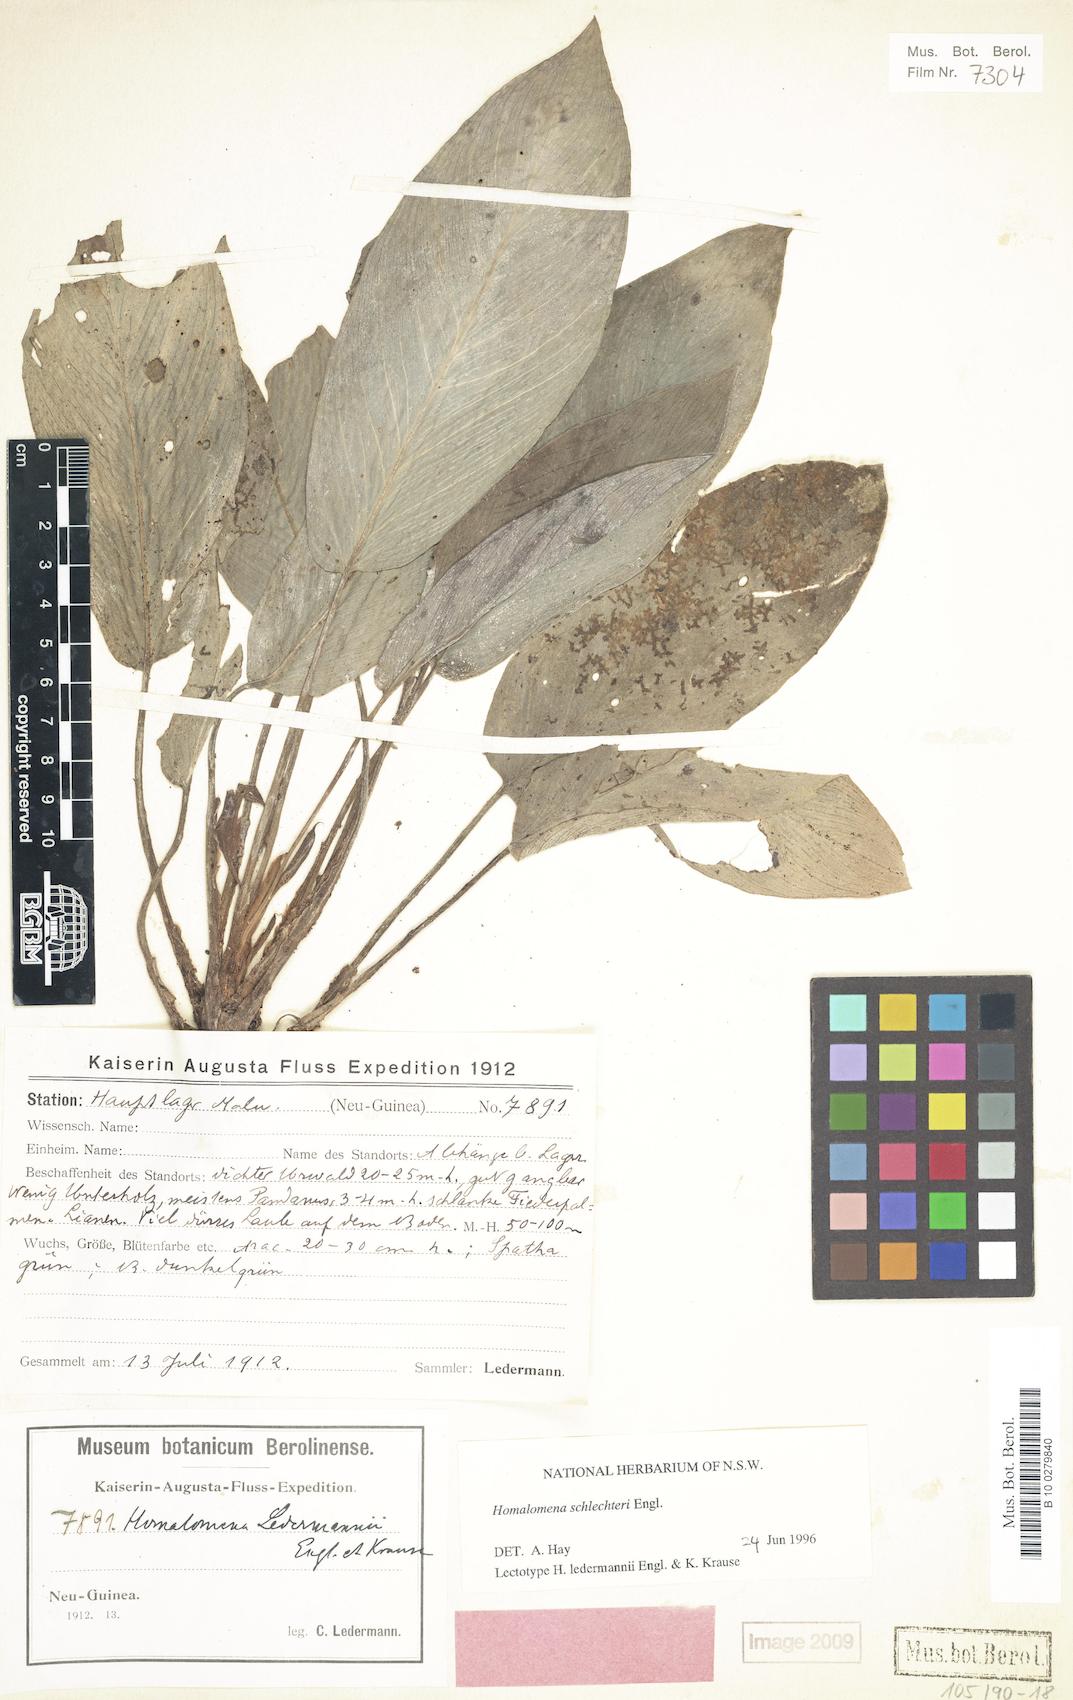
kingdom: Plantae
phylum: Tracheophyta
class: Liliopsida
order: Alismatales
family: Araceae
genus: Homalomena
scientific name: Homalomena peekelii
